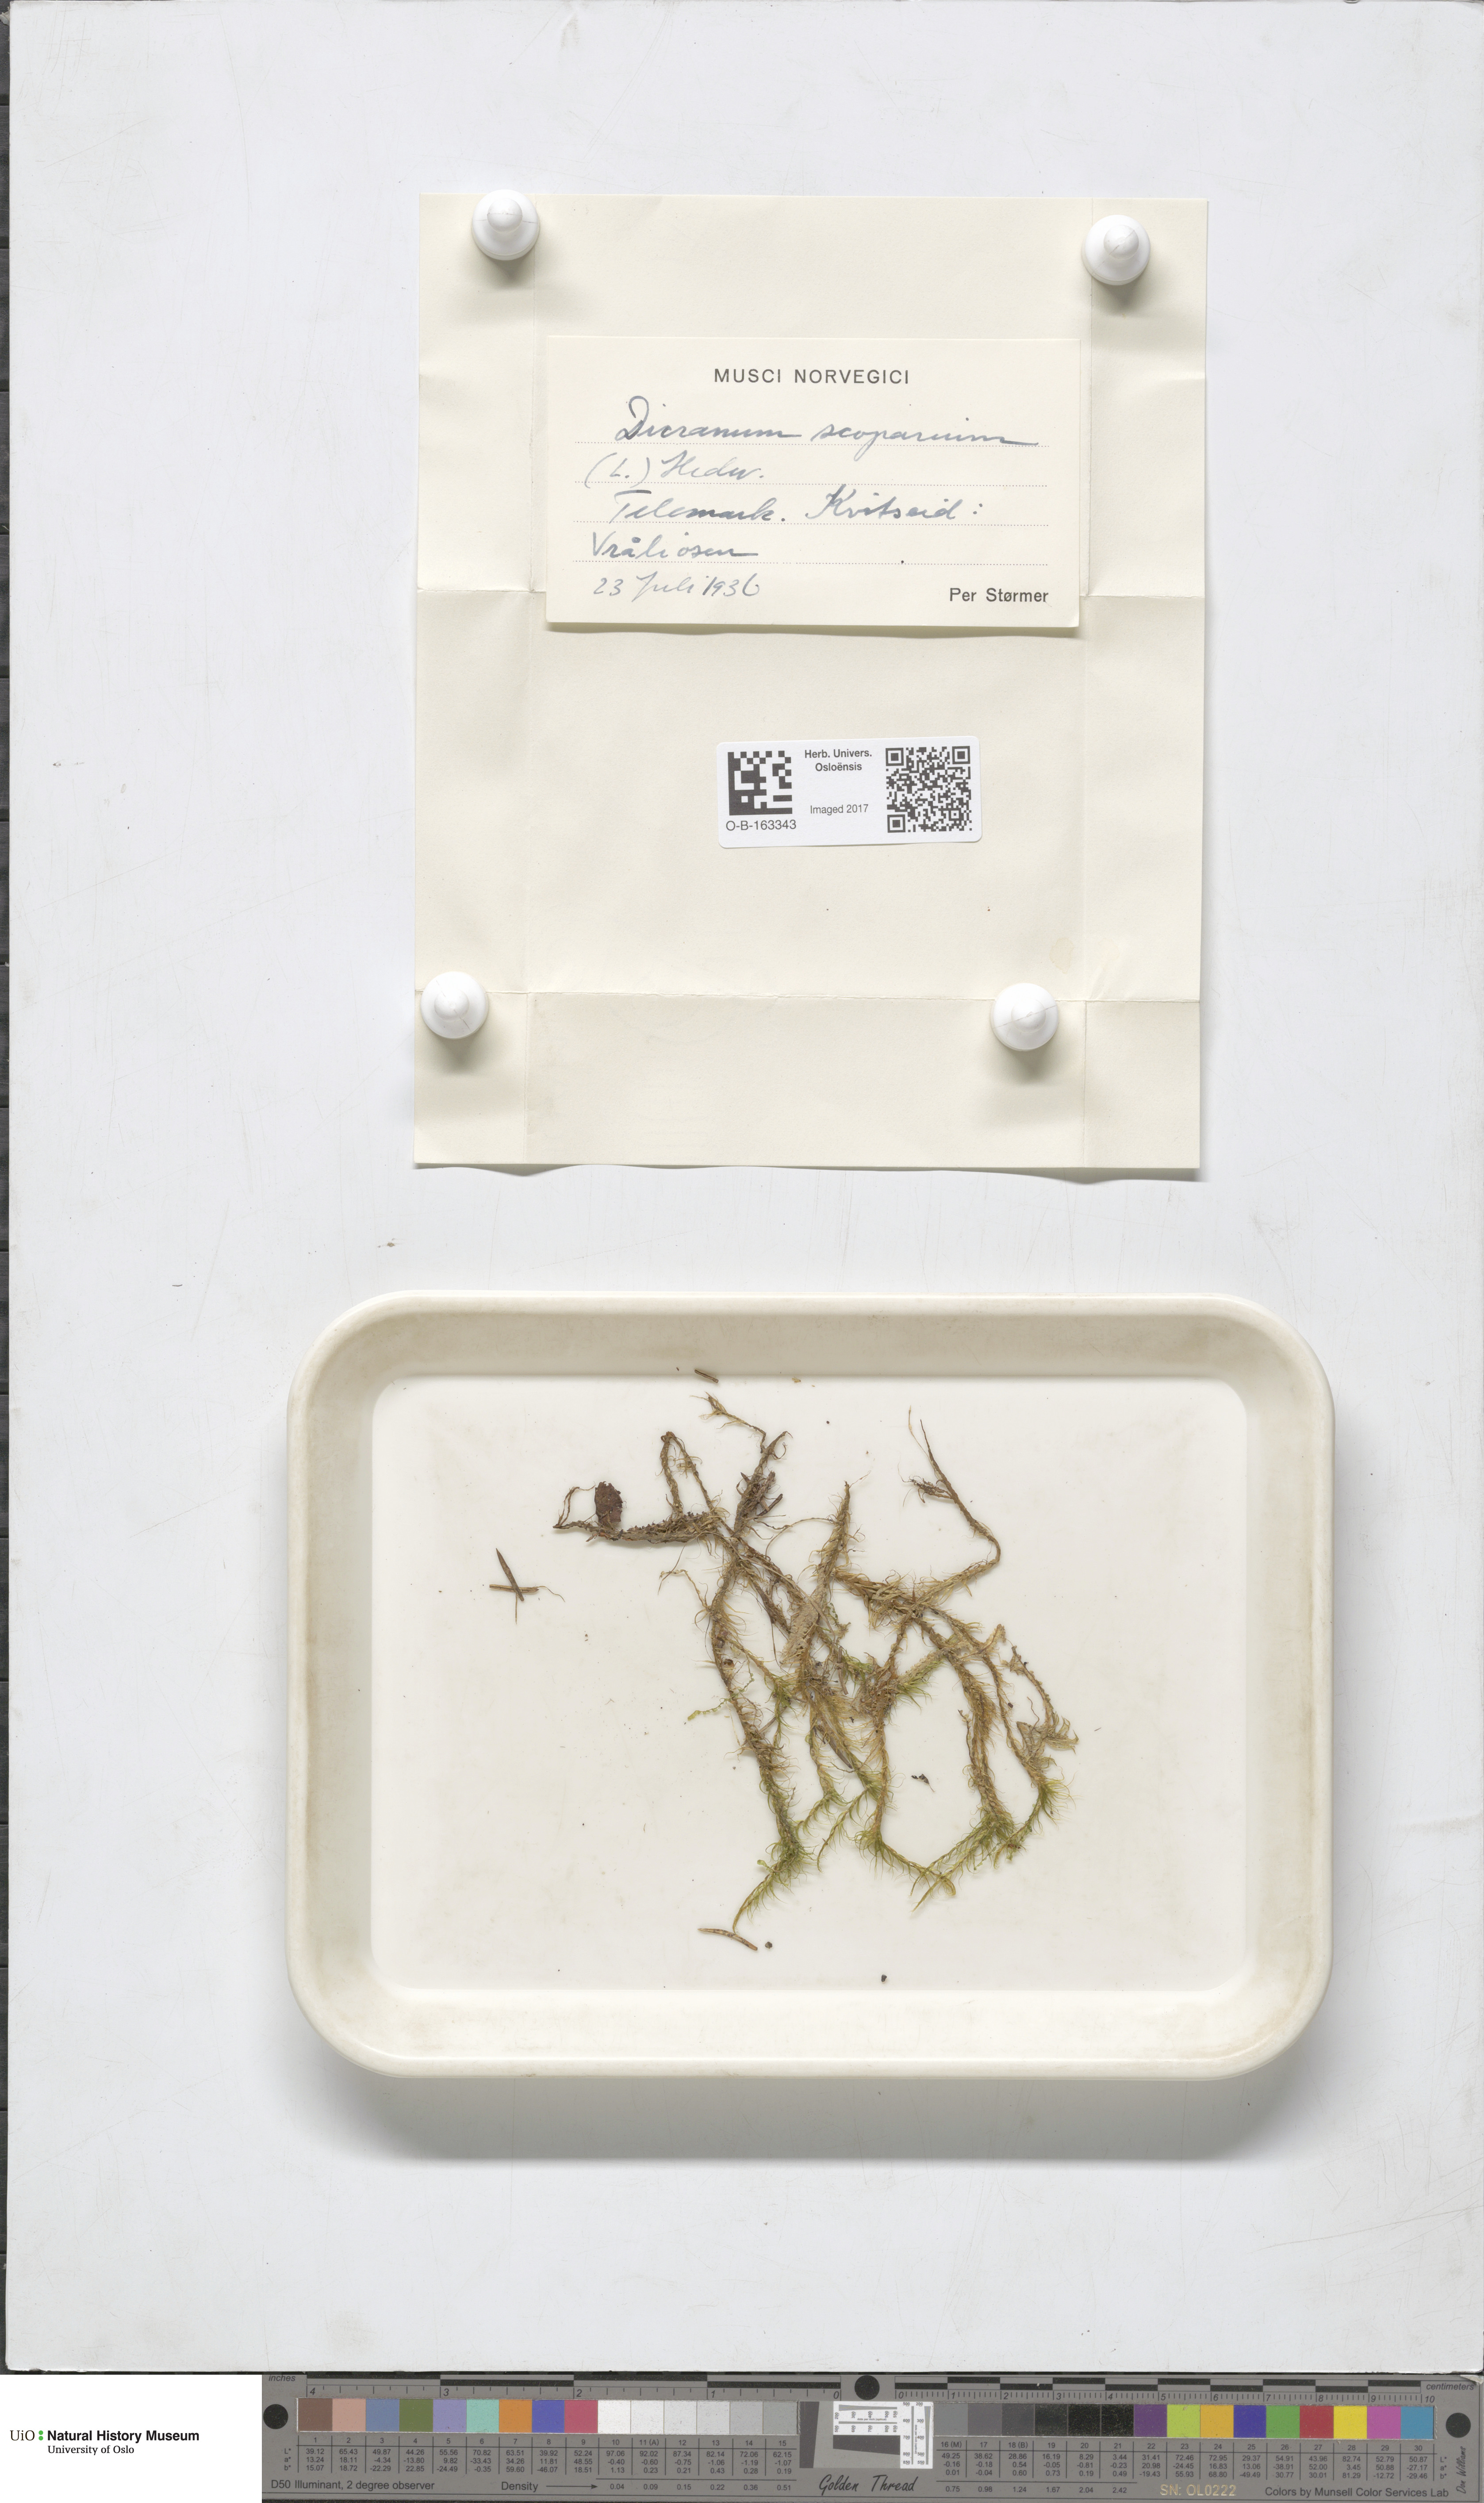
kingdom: Plantae
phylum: Bryophyta
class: Bryopsida
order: Dicranales
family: Dicranaceae
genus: Dicranum
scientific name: Dicranum scoparium
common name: Broom fork-moss
